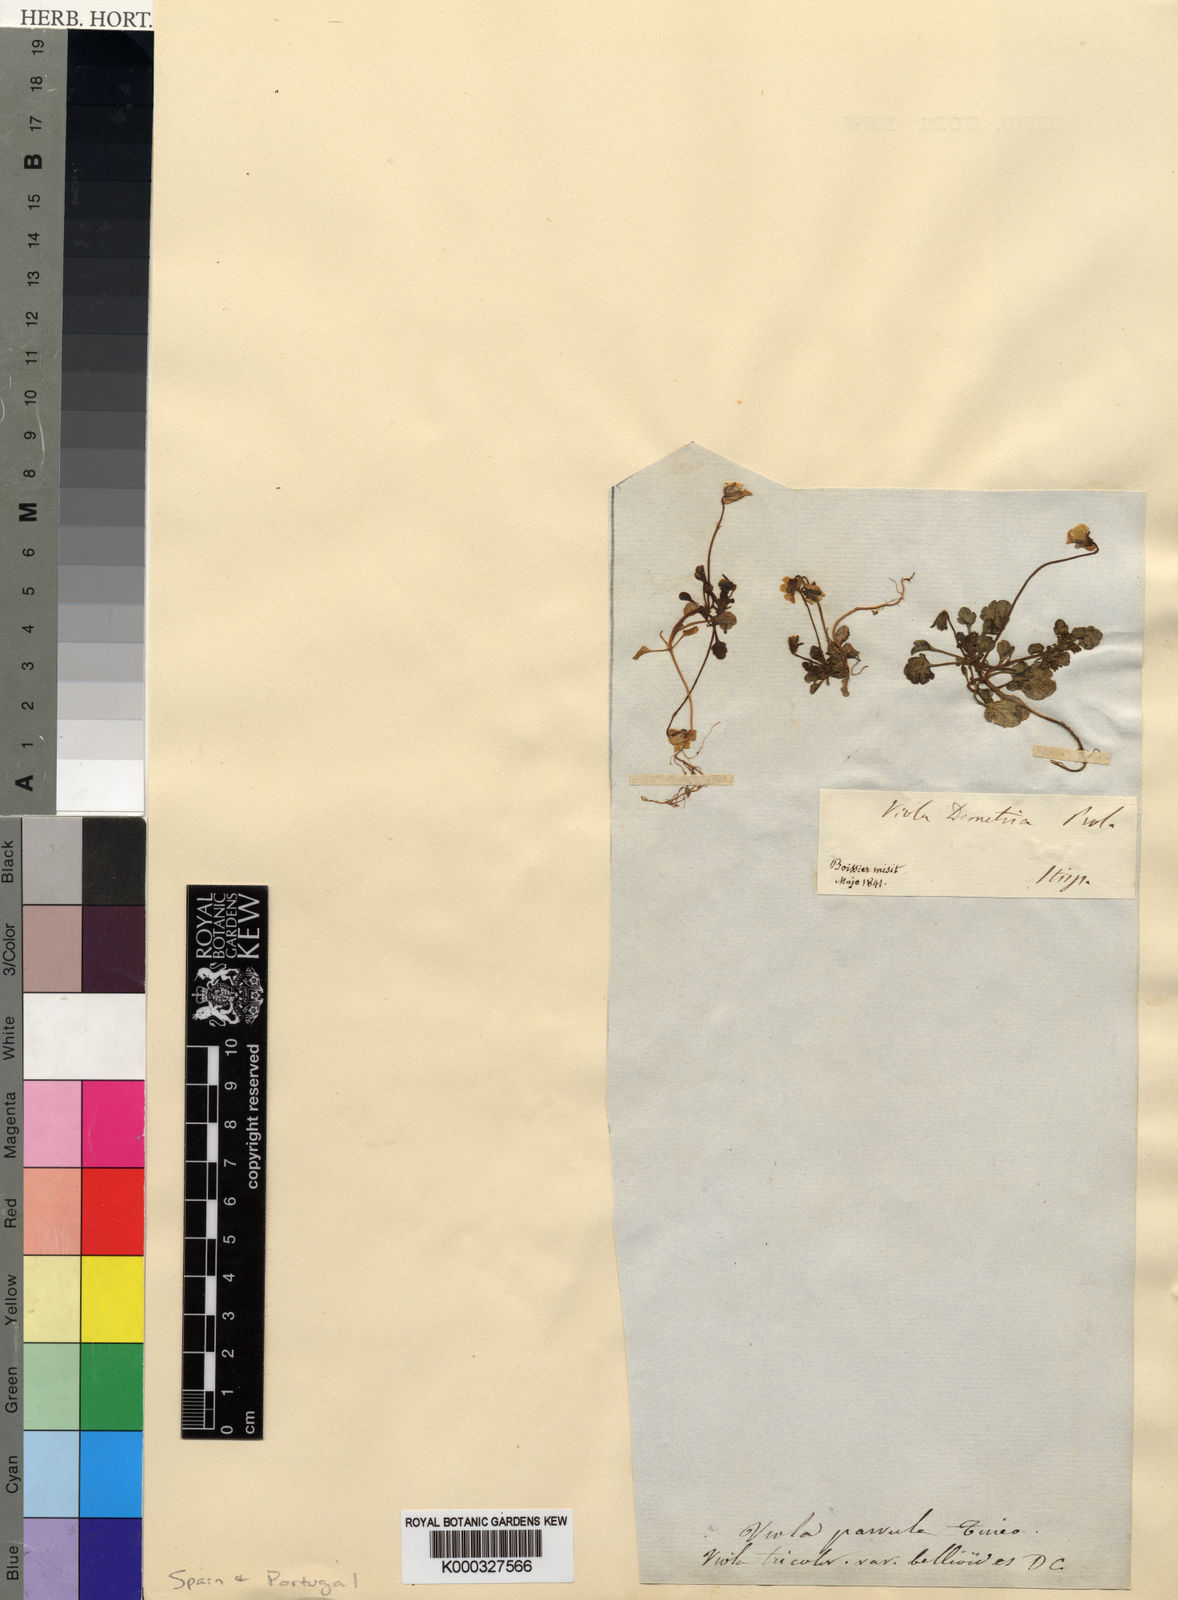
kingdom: Plantae
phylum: Tracheophyta
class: Magnoliopsida
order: Malpighiales
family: Violaceae
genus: Viola
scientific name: Viola demetria
